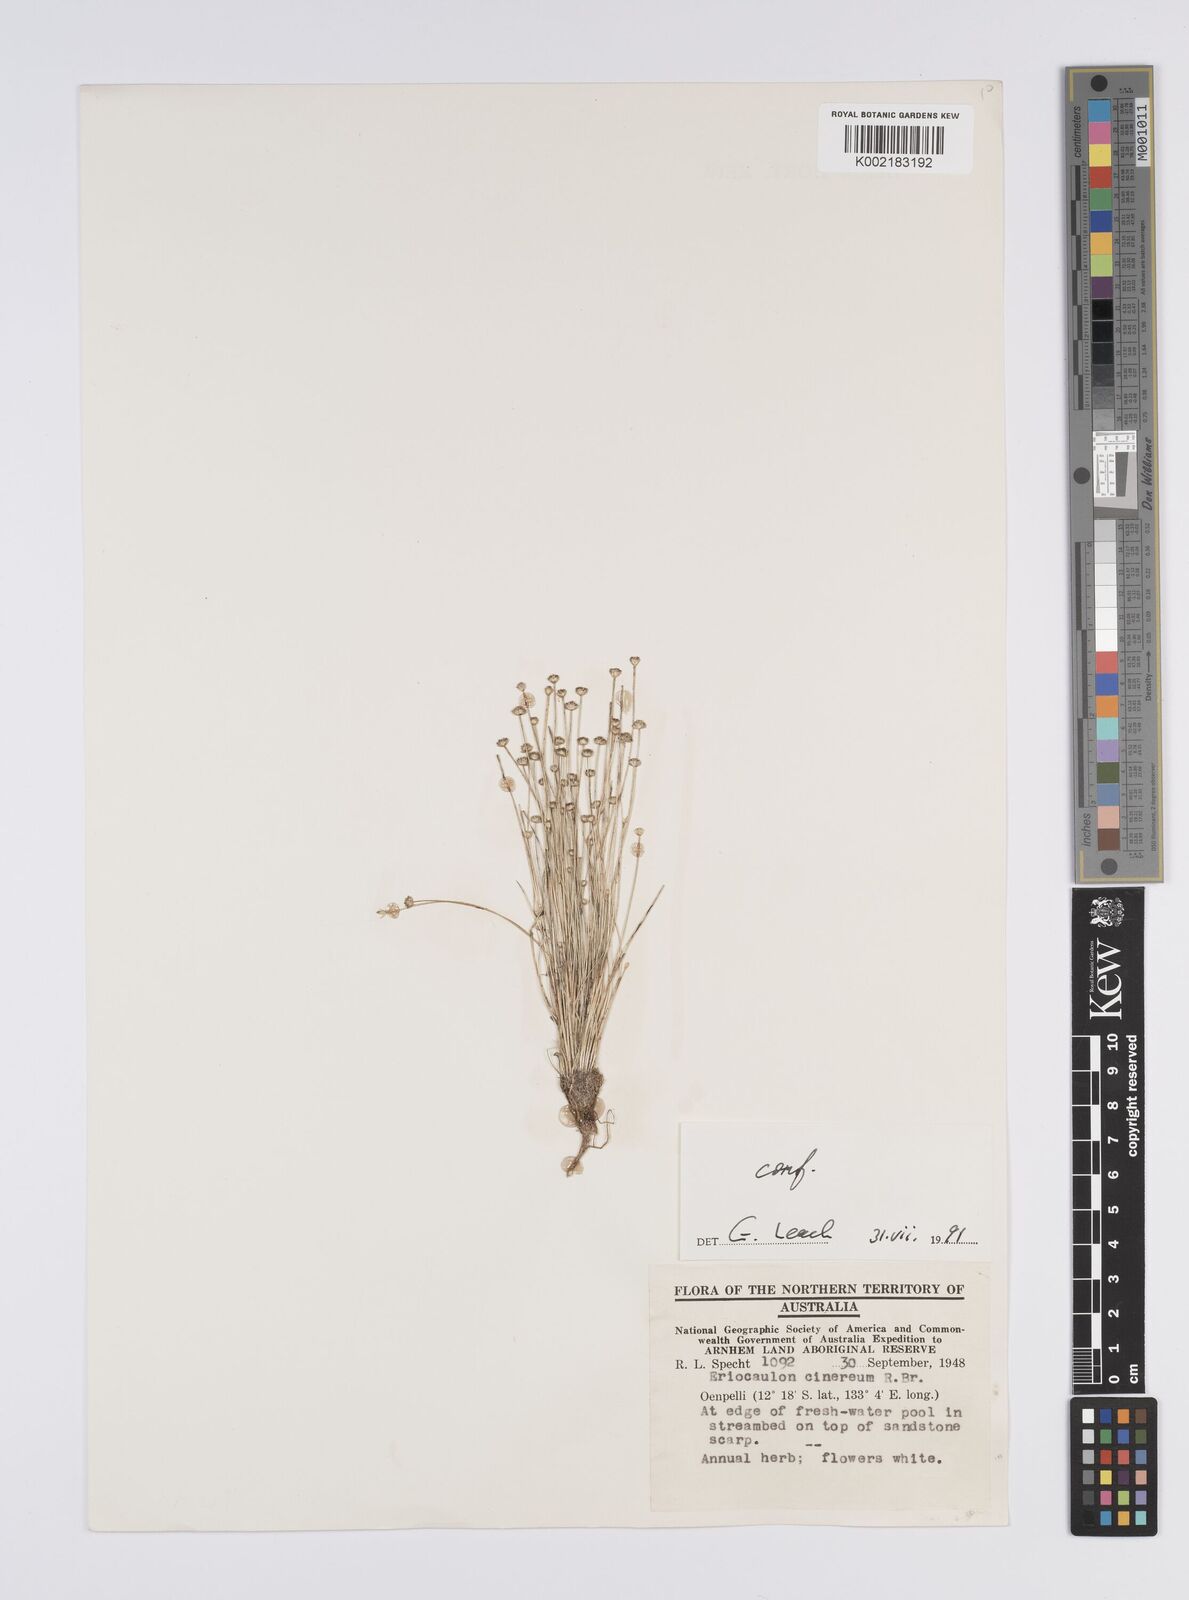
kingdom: Plantae
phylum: Tracheophyta
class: Liliopsida
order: Poales
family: Eriocaulaceae
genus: Eriocaulon
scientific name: Eriocaulon cinereum
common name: Ashy pipewort
